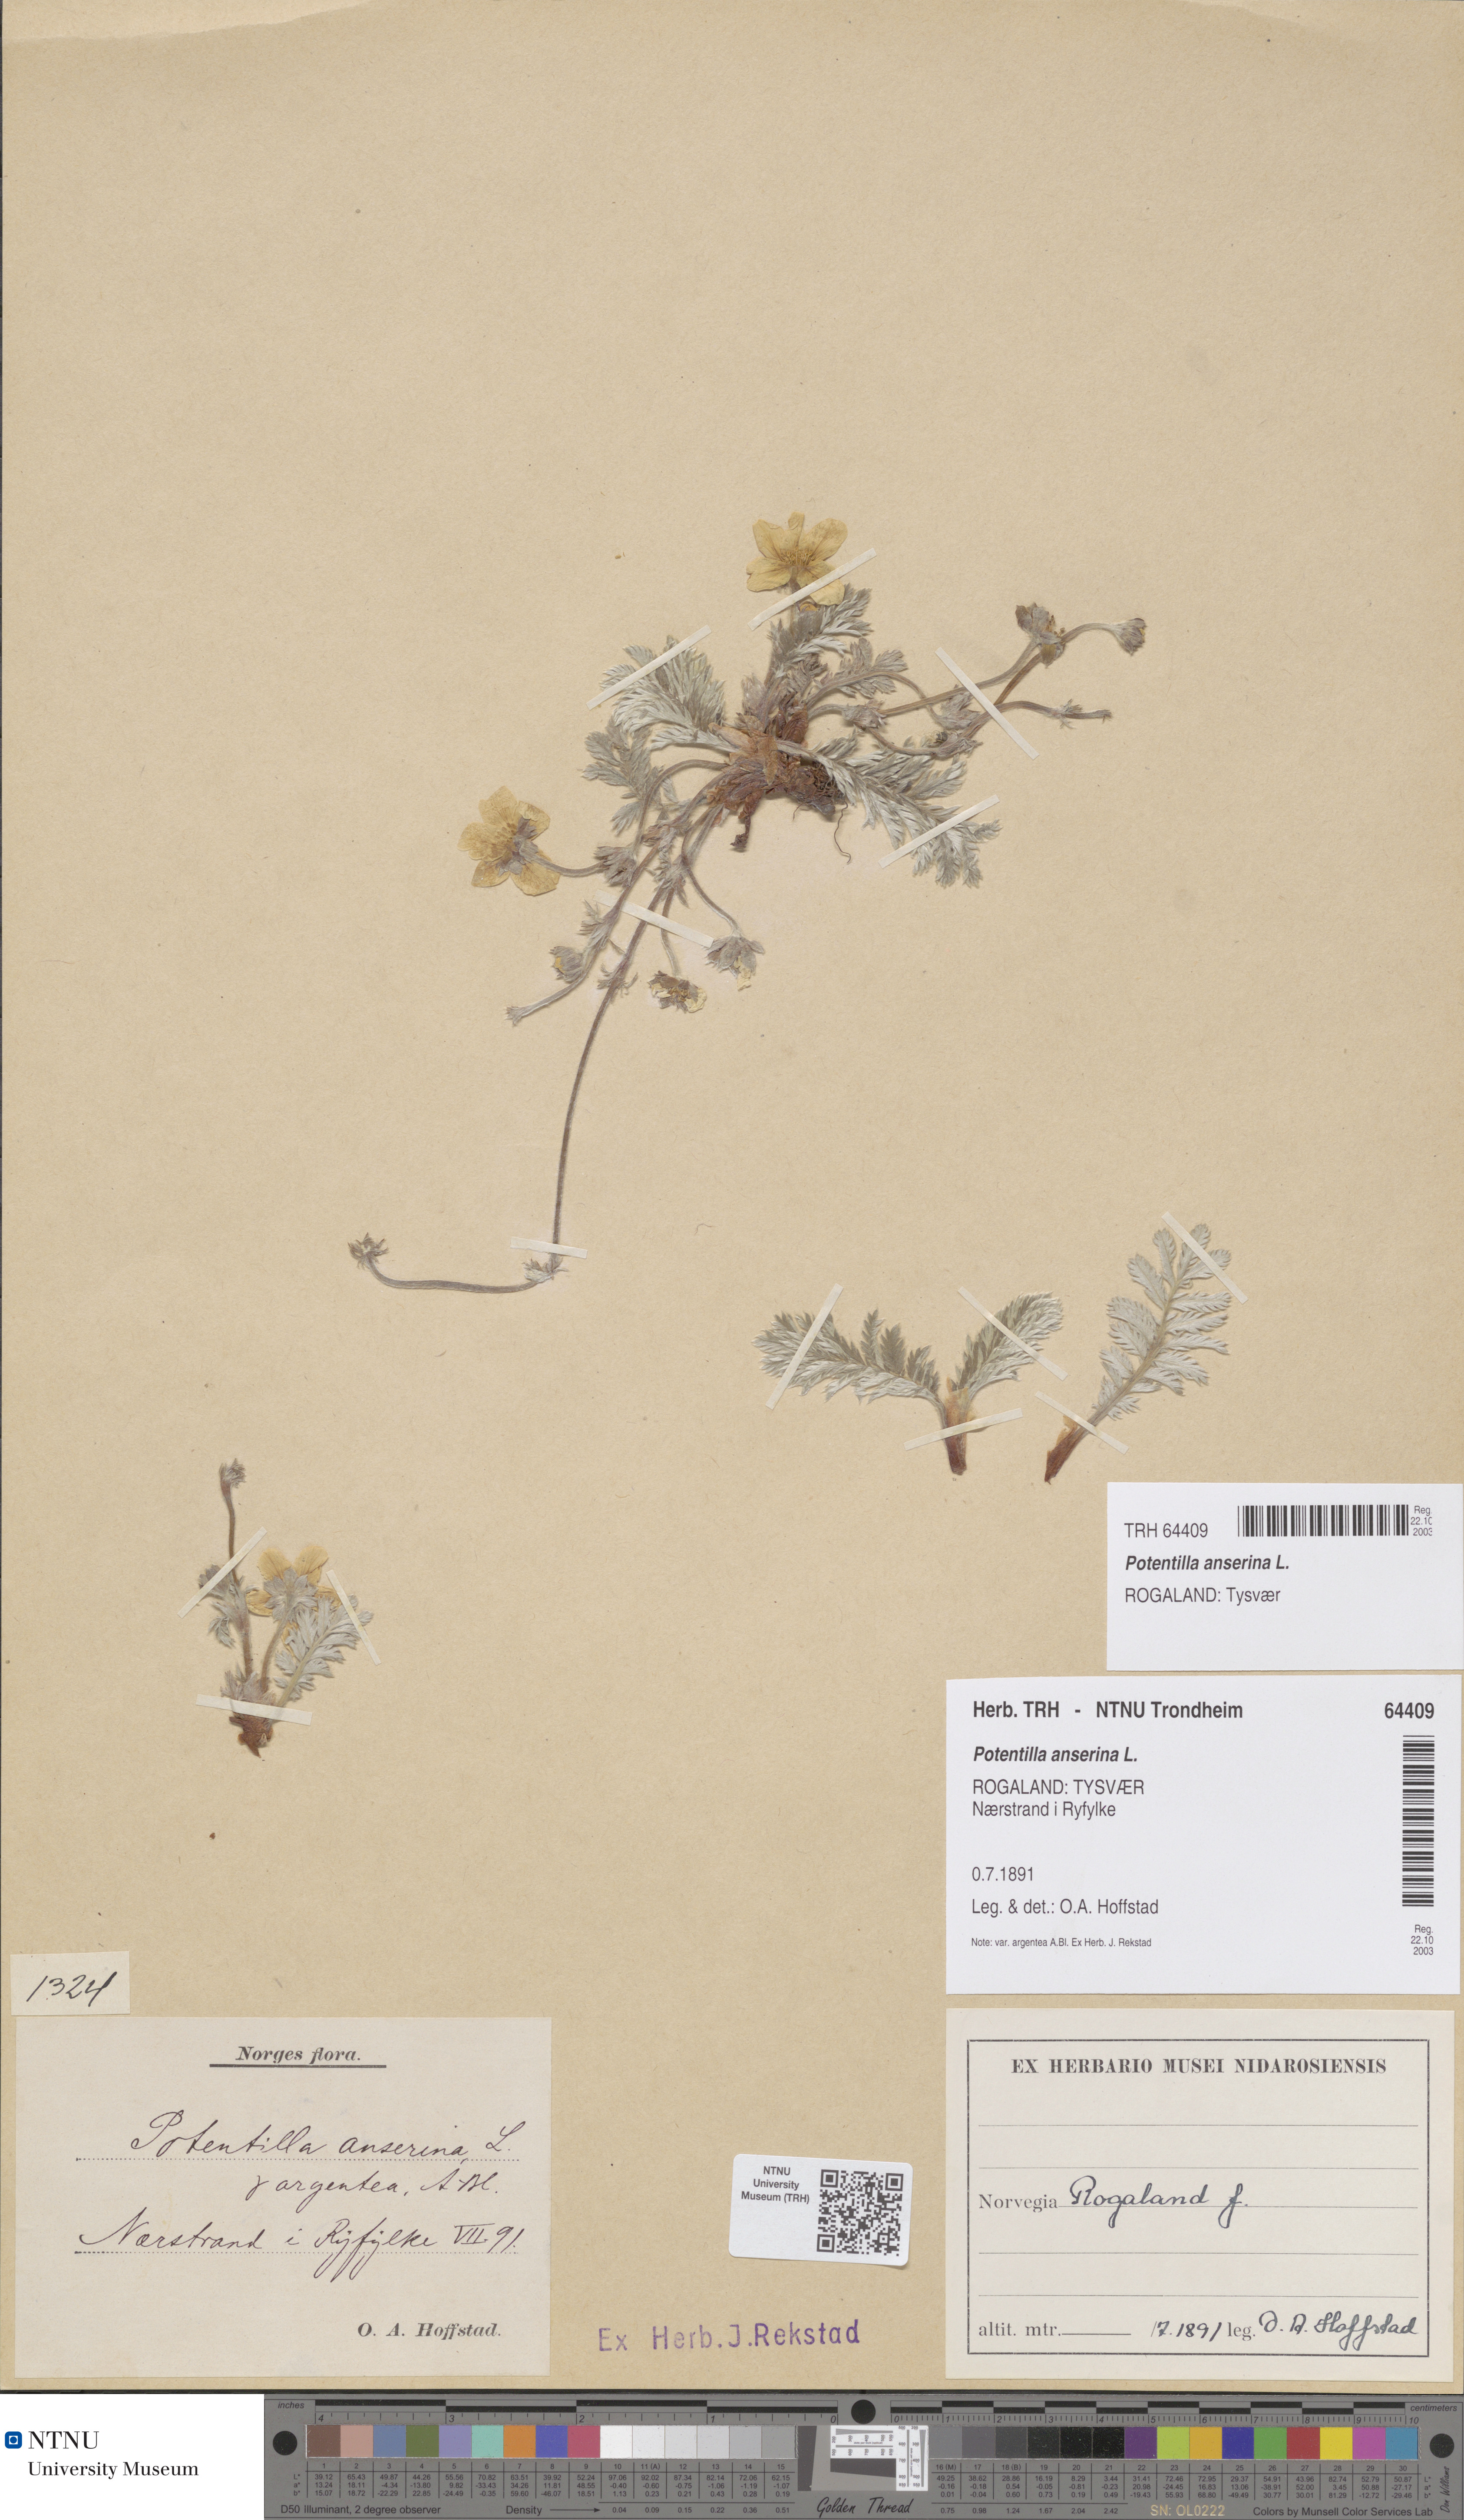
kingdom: Plantae
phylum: Tracheophyta
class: Magnoliopsida
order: Rosales
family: Rosaceae
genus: Argentina
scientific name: Argentina anserina
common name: Common silverweed
